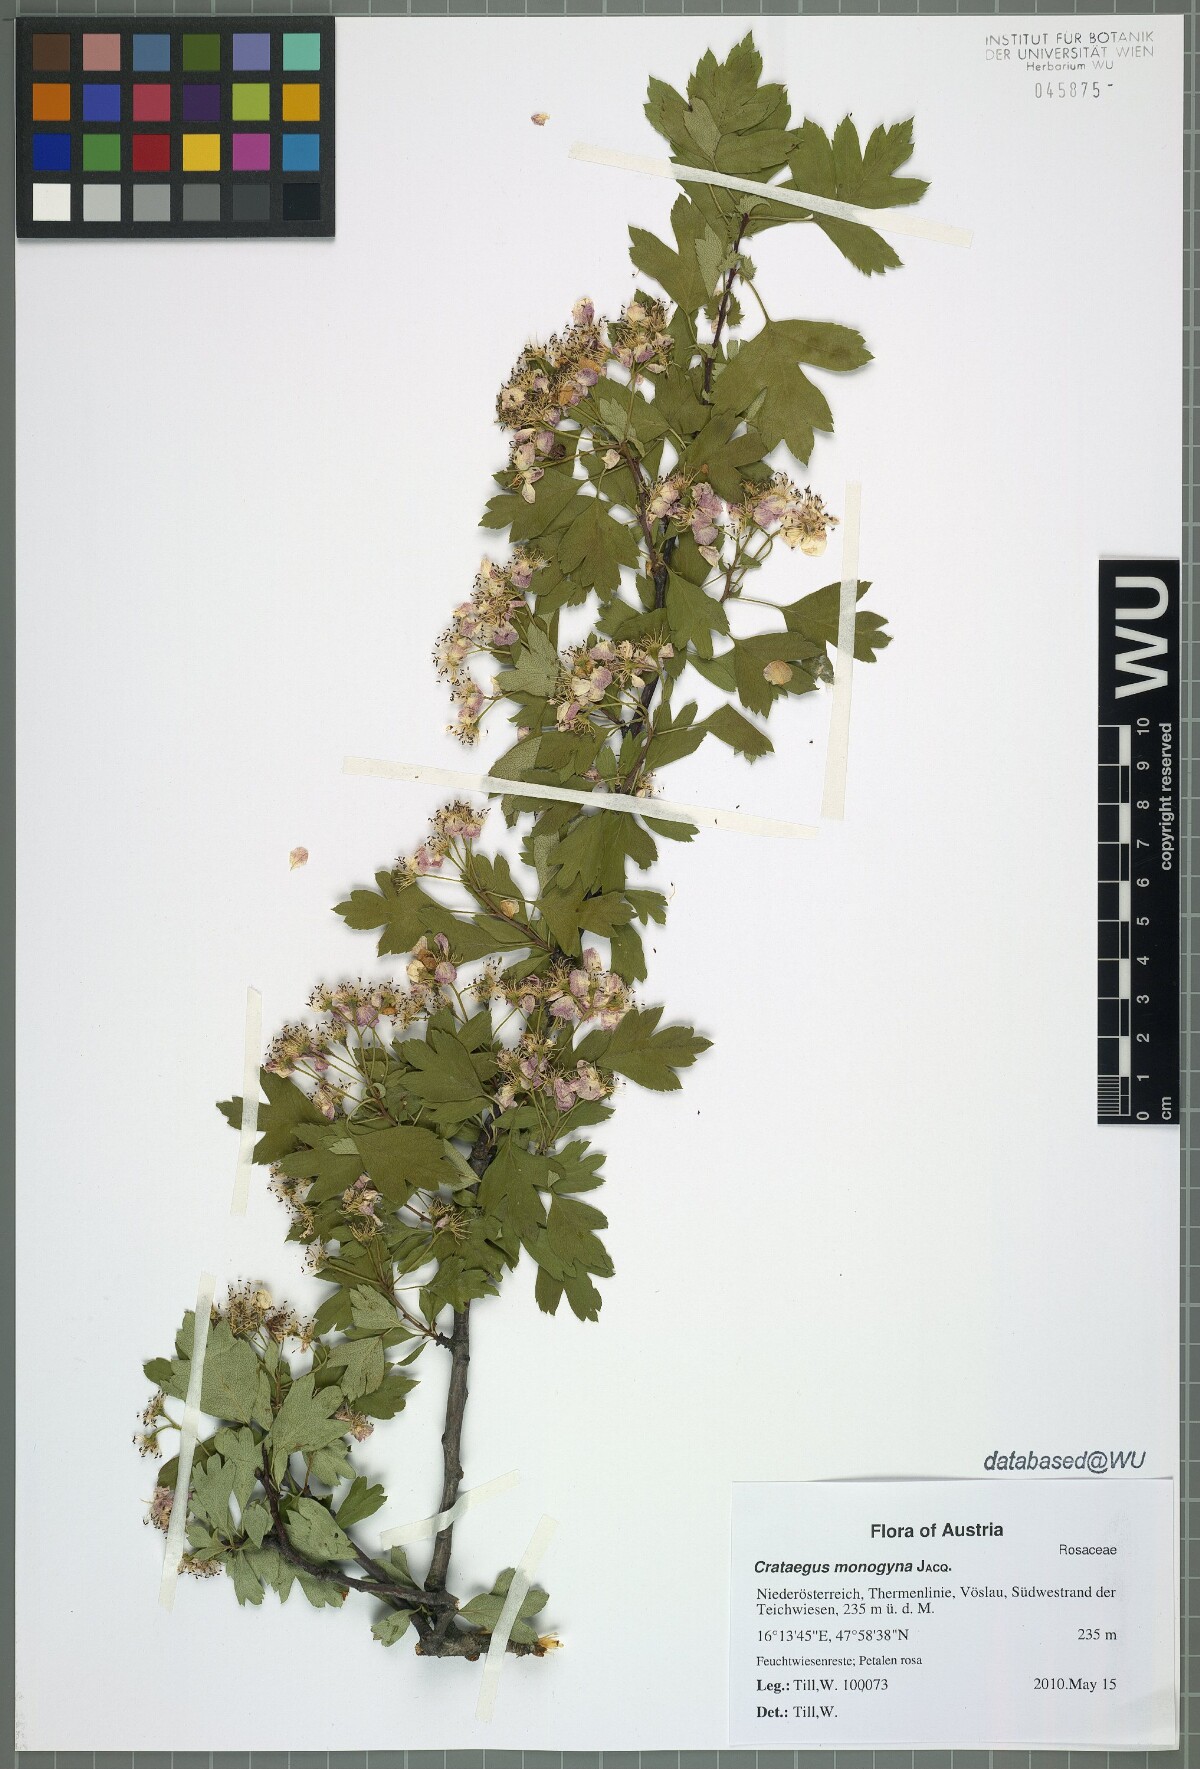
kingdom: Plantae
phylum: Tracheophyta
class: Magnoliopsida
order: Rosales
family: Rosaceae
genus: Crataegus
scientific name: Crataegus monogyna
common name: Hawthorn
